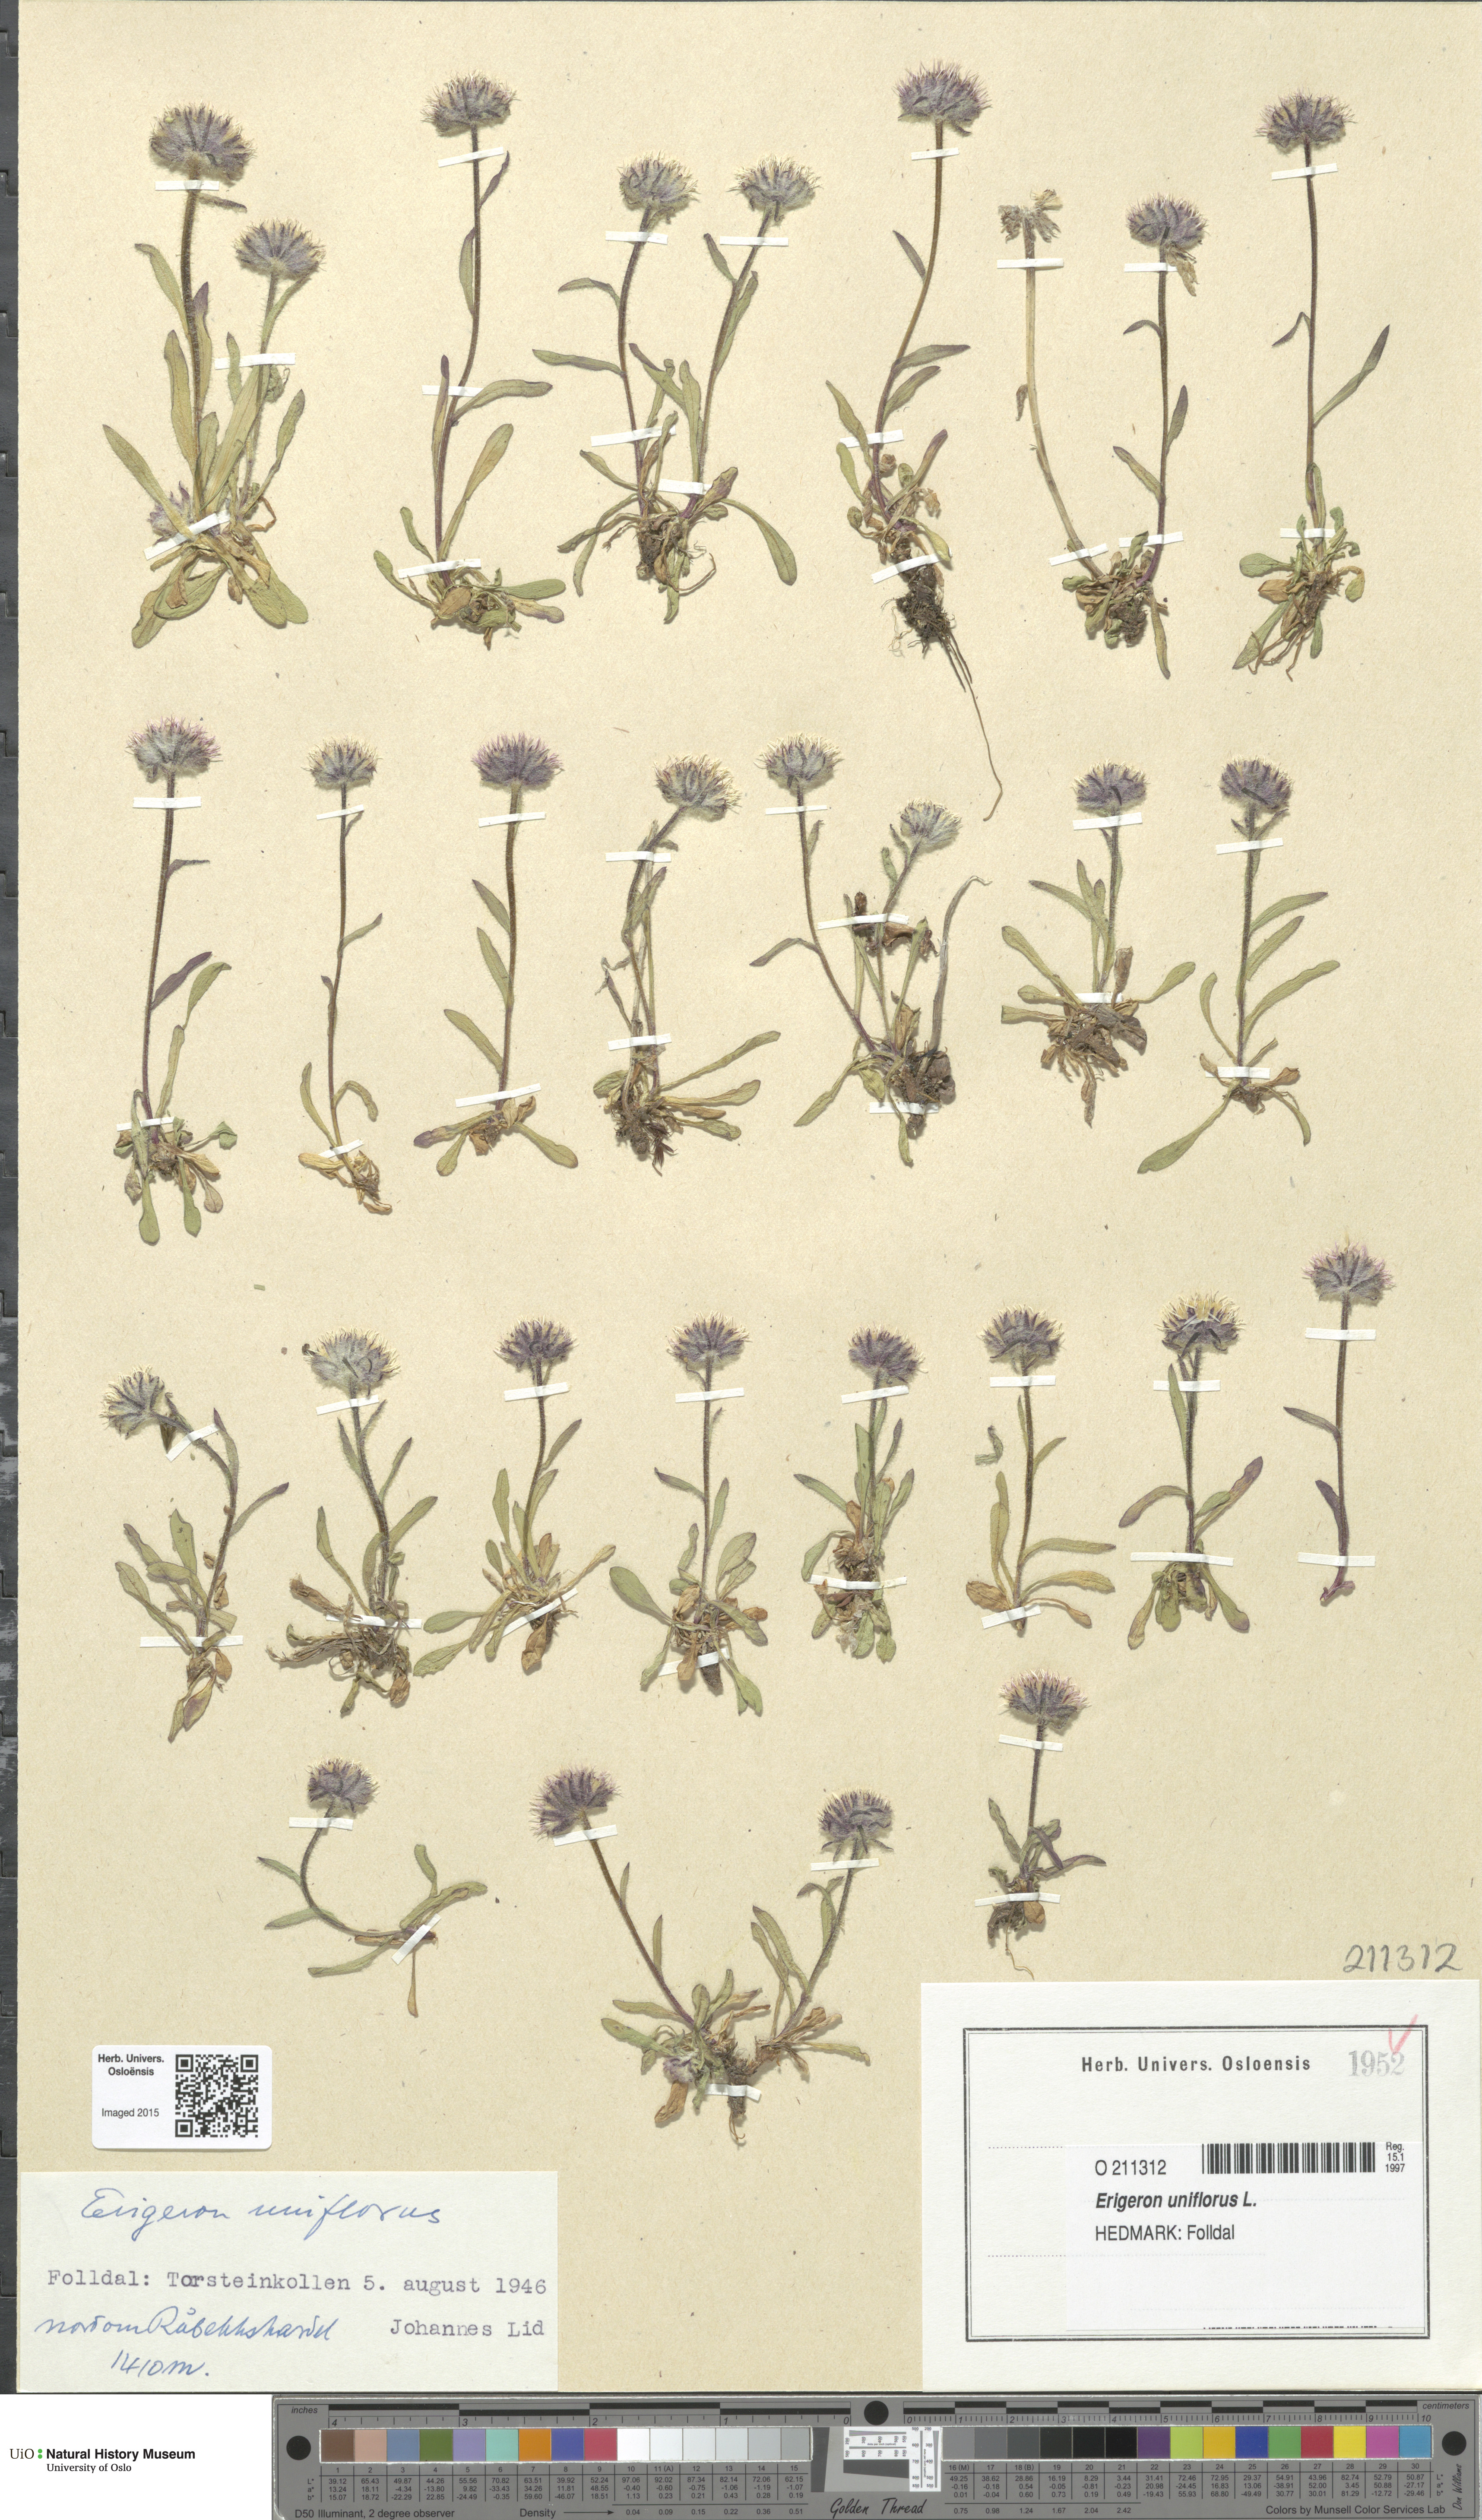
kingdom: Plantae
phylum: Tracheophyta
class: Magnoliopsida
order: Asterales
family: Asteraceae
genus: Erigeron
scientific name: Erigeron uniflorus
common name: Northern daisy
